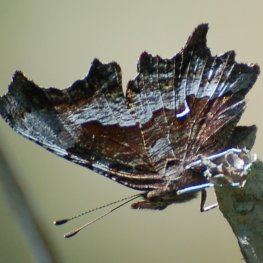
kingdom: Animalia
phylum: Arthropoda
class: Insecta
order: Lepidoptera
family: Nymphalidae
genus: Polygonia
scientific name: Polygonia gracilis
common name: Hoary Comma
